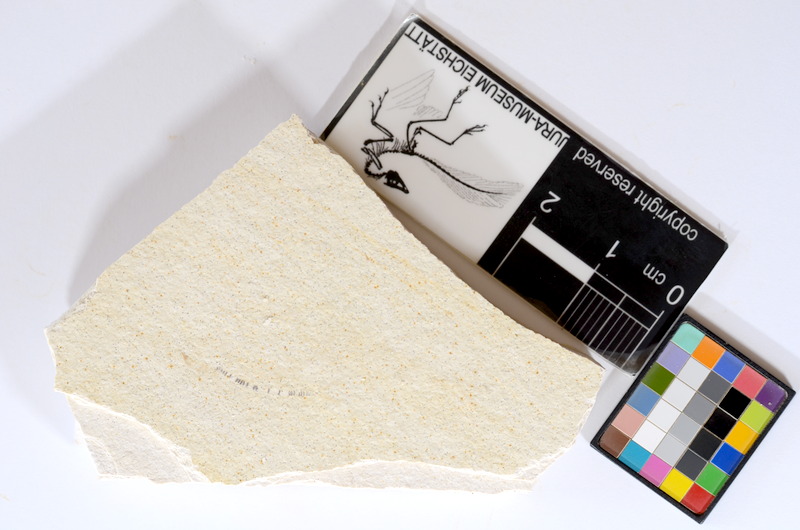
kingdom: Animalia
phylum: Chordata
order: Salmoniformes
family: Orthogonikleithridae
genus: Orthogonikleithrus
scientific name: Orthogonikleithrus hoelli
